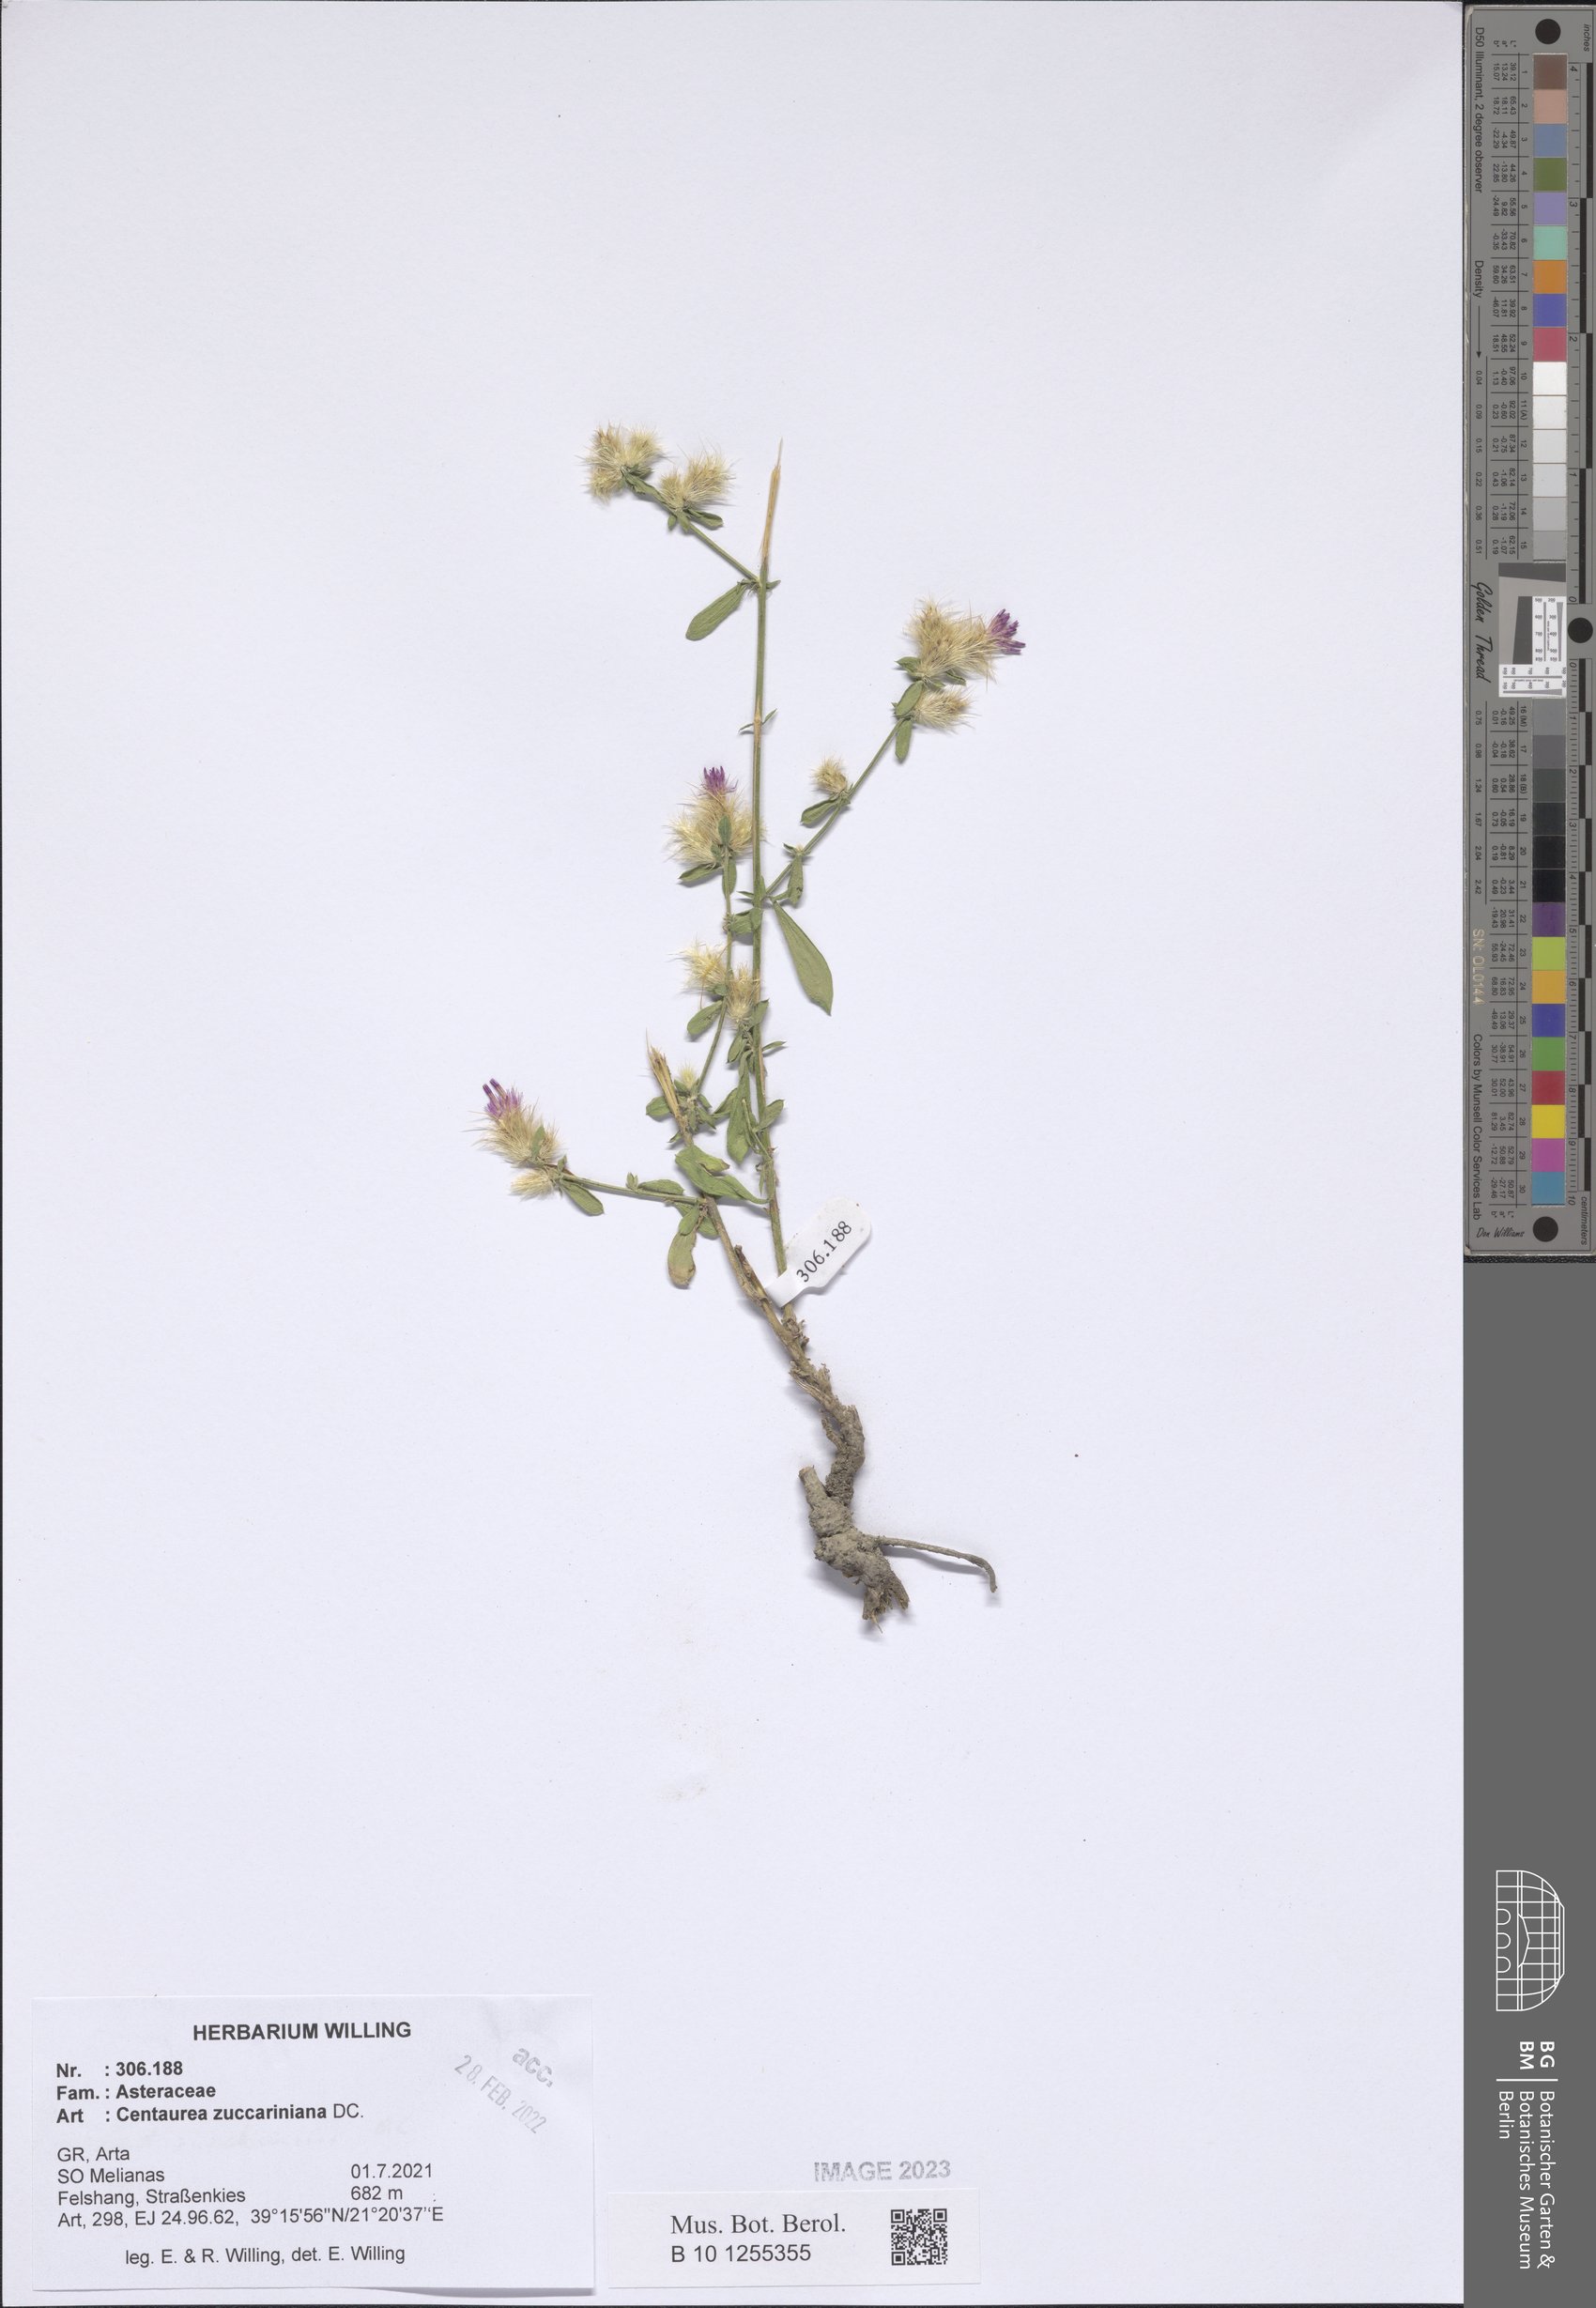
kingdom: Plantae
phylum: Tracheophyta
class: Magnoliopsida
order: Asterales
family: Asteraceae
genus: Centaurea
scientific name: Centaurea zuccariniana
